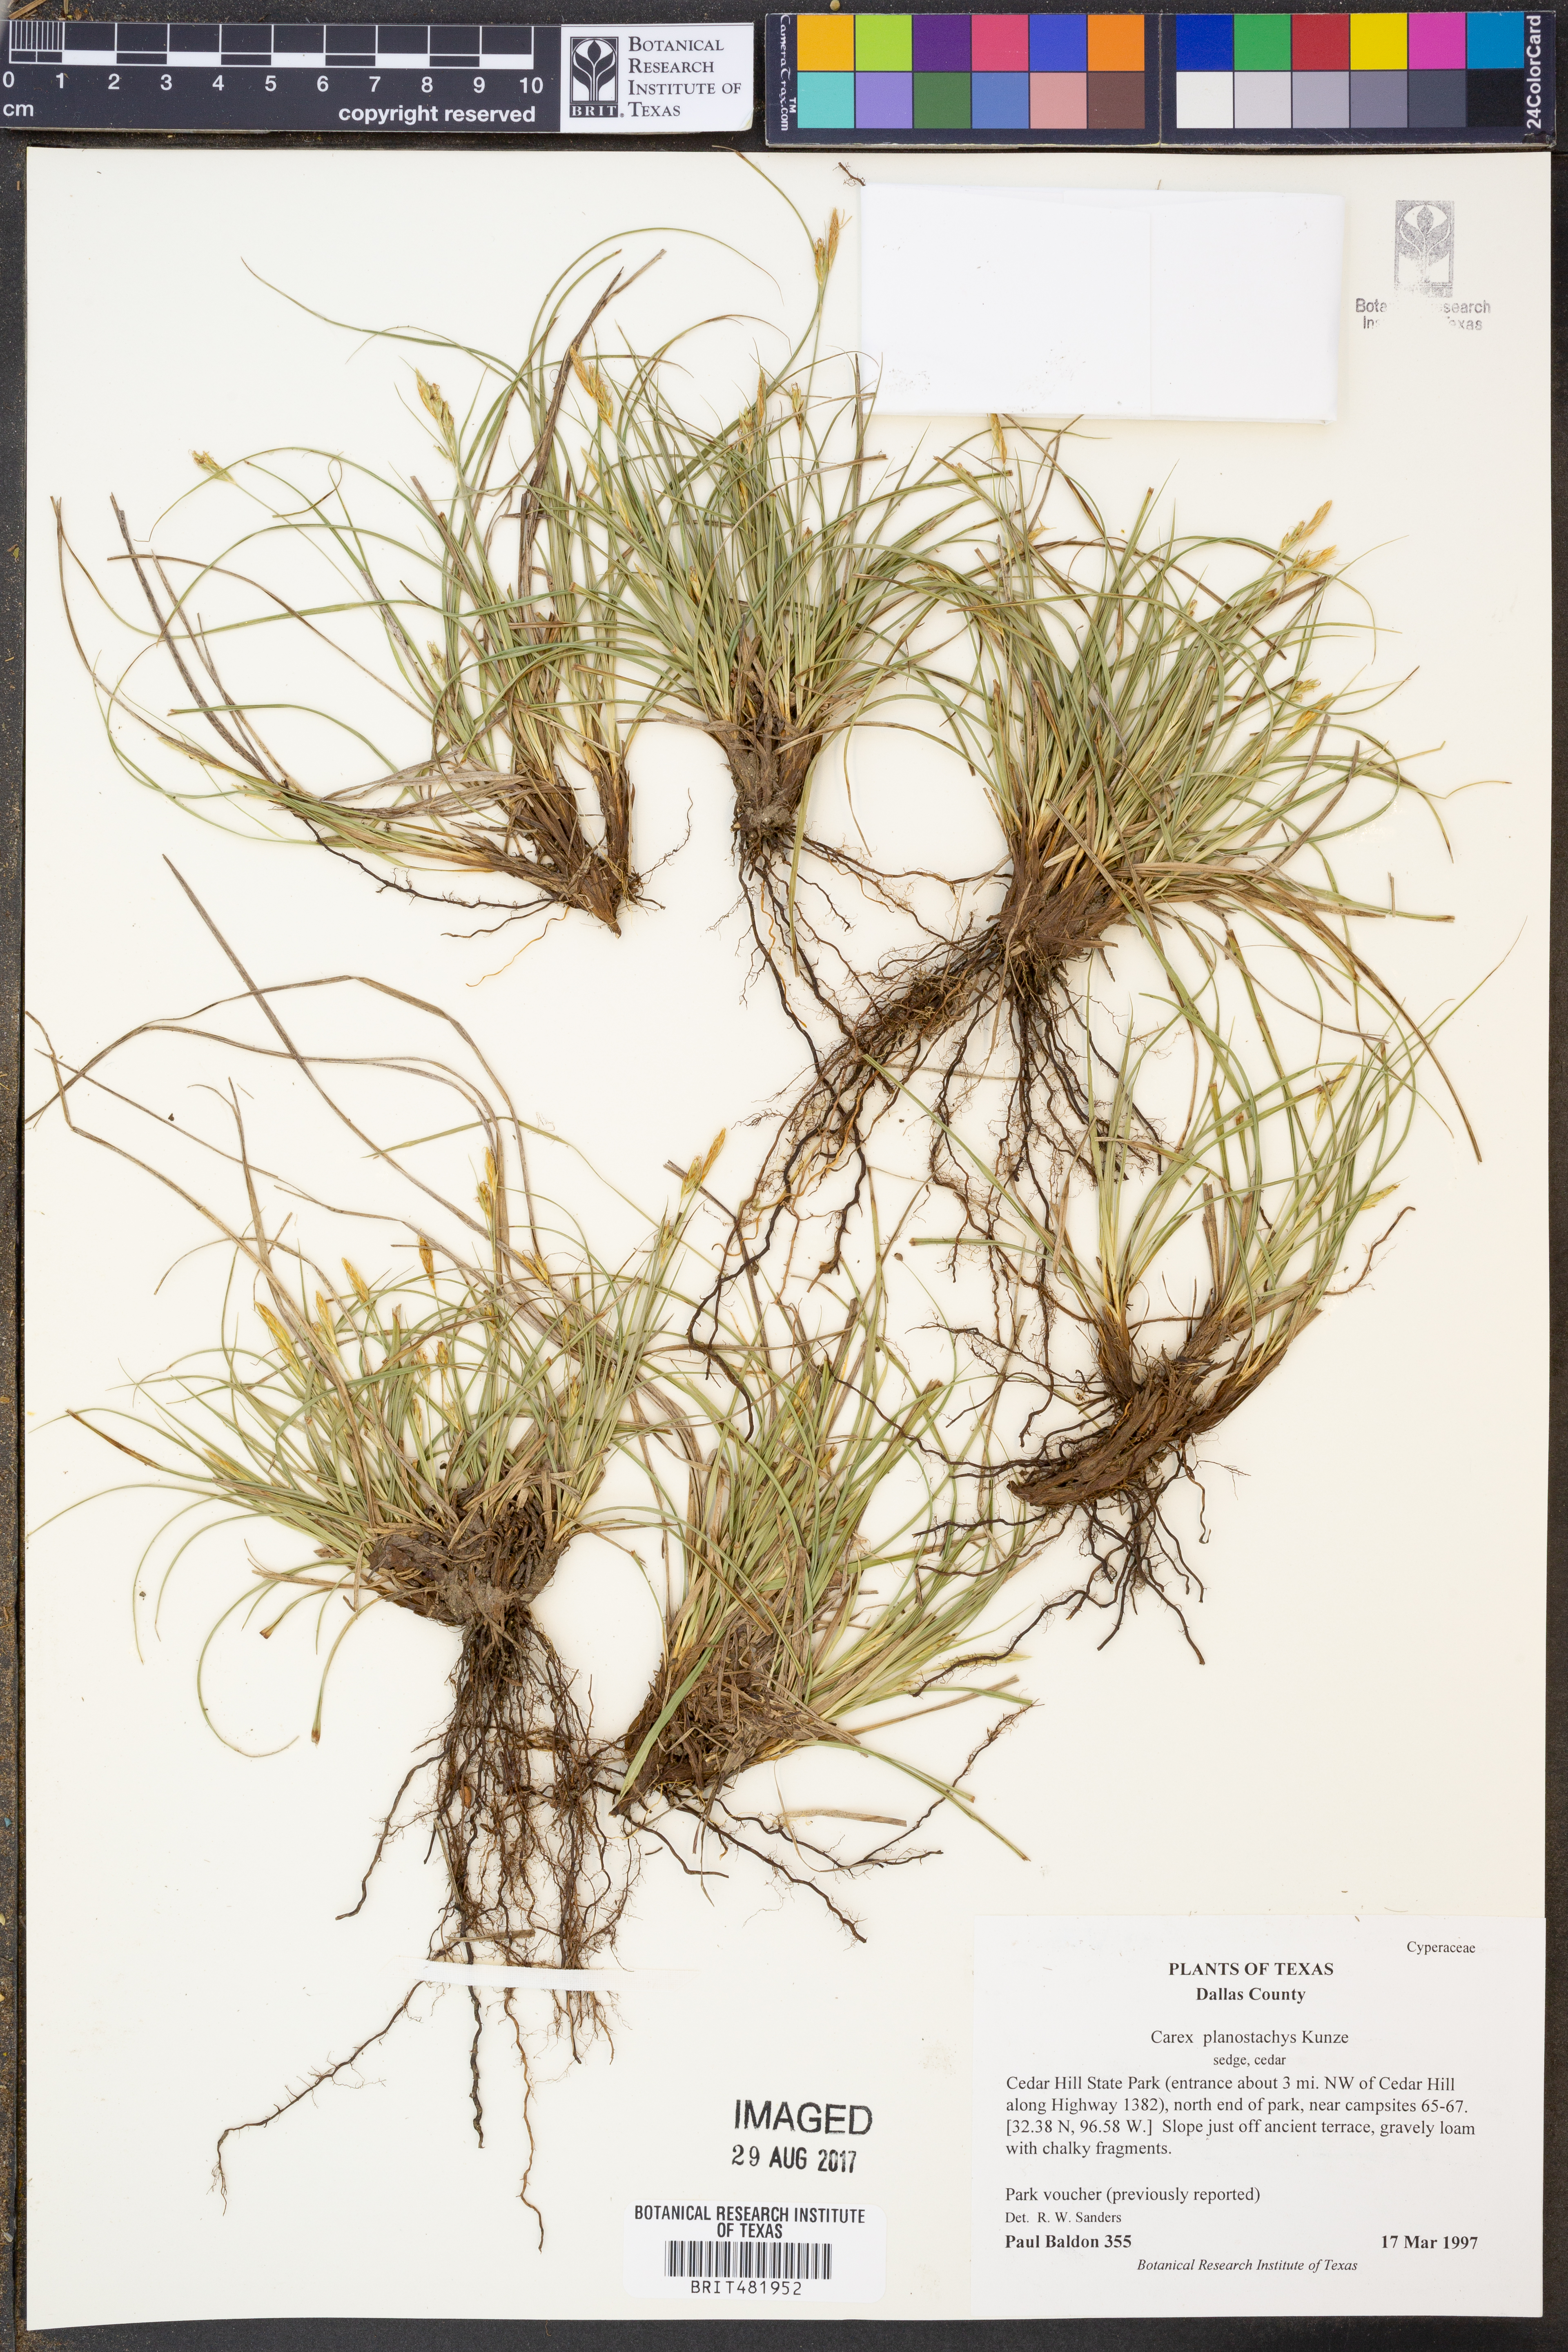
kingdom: Plantae
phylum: Tracheophyta
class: Liliopsida
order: Poales
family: Cyperaceae
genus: Carex
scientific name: Carex planostachys
